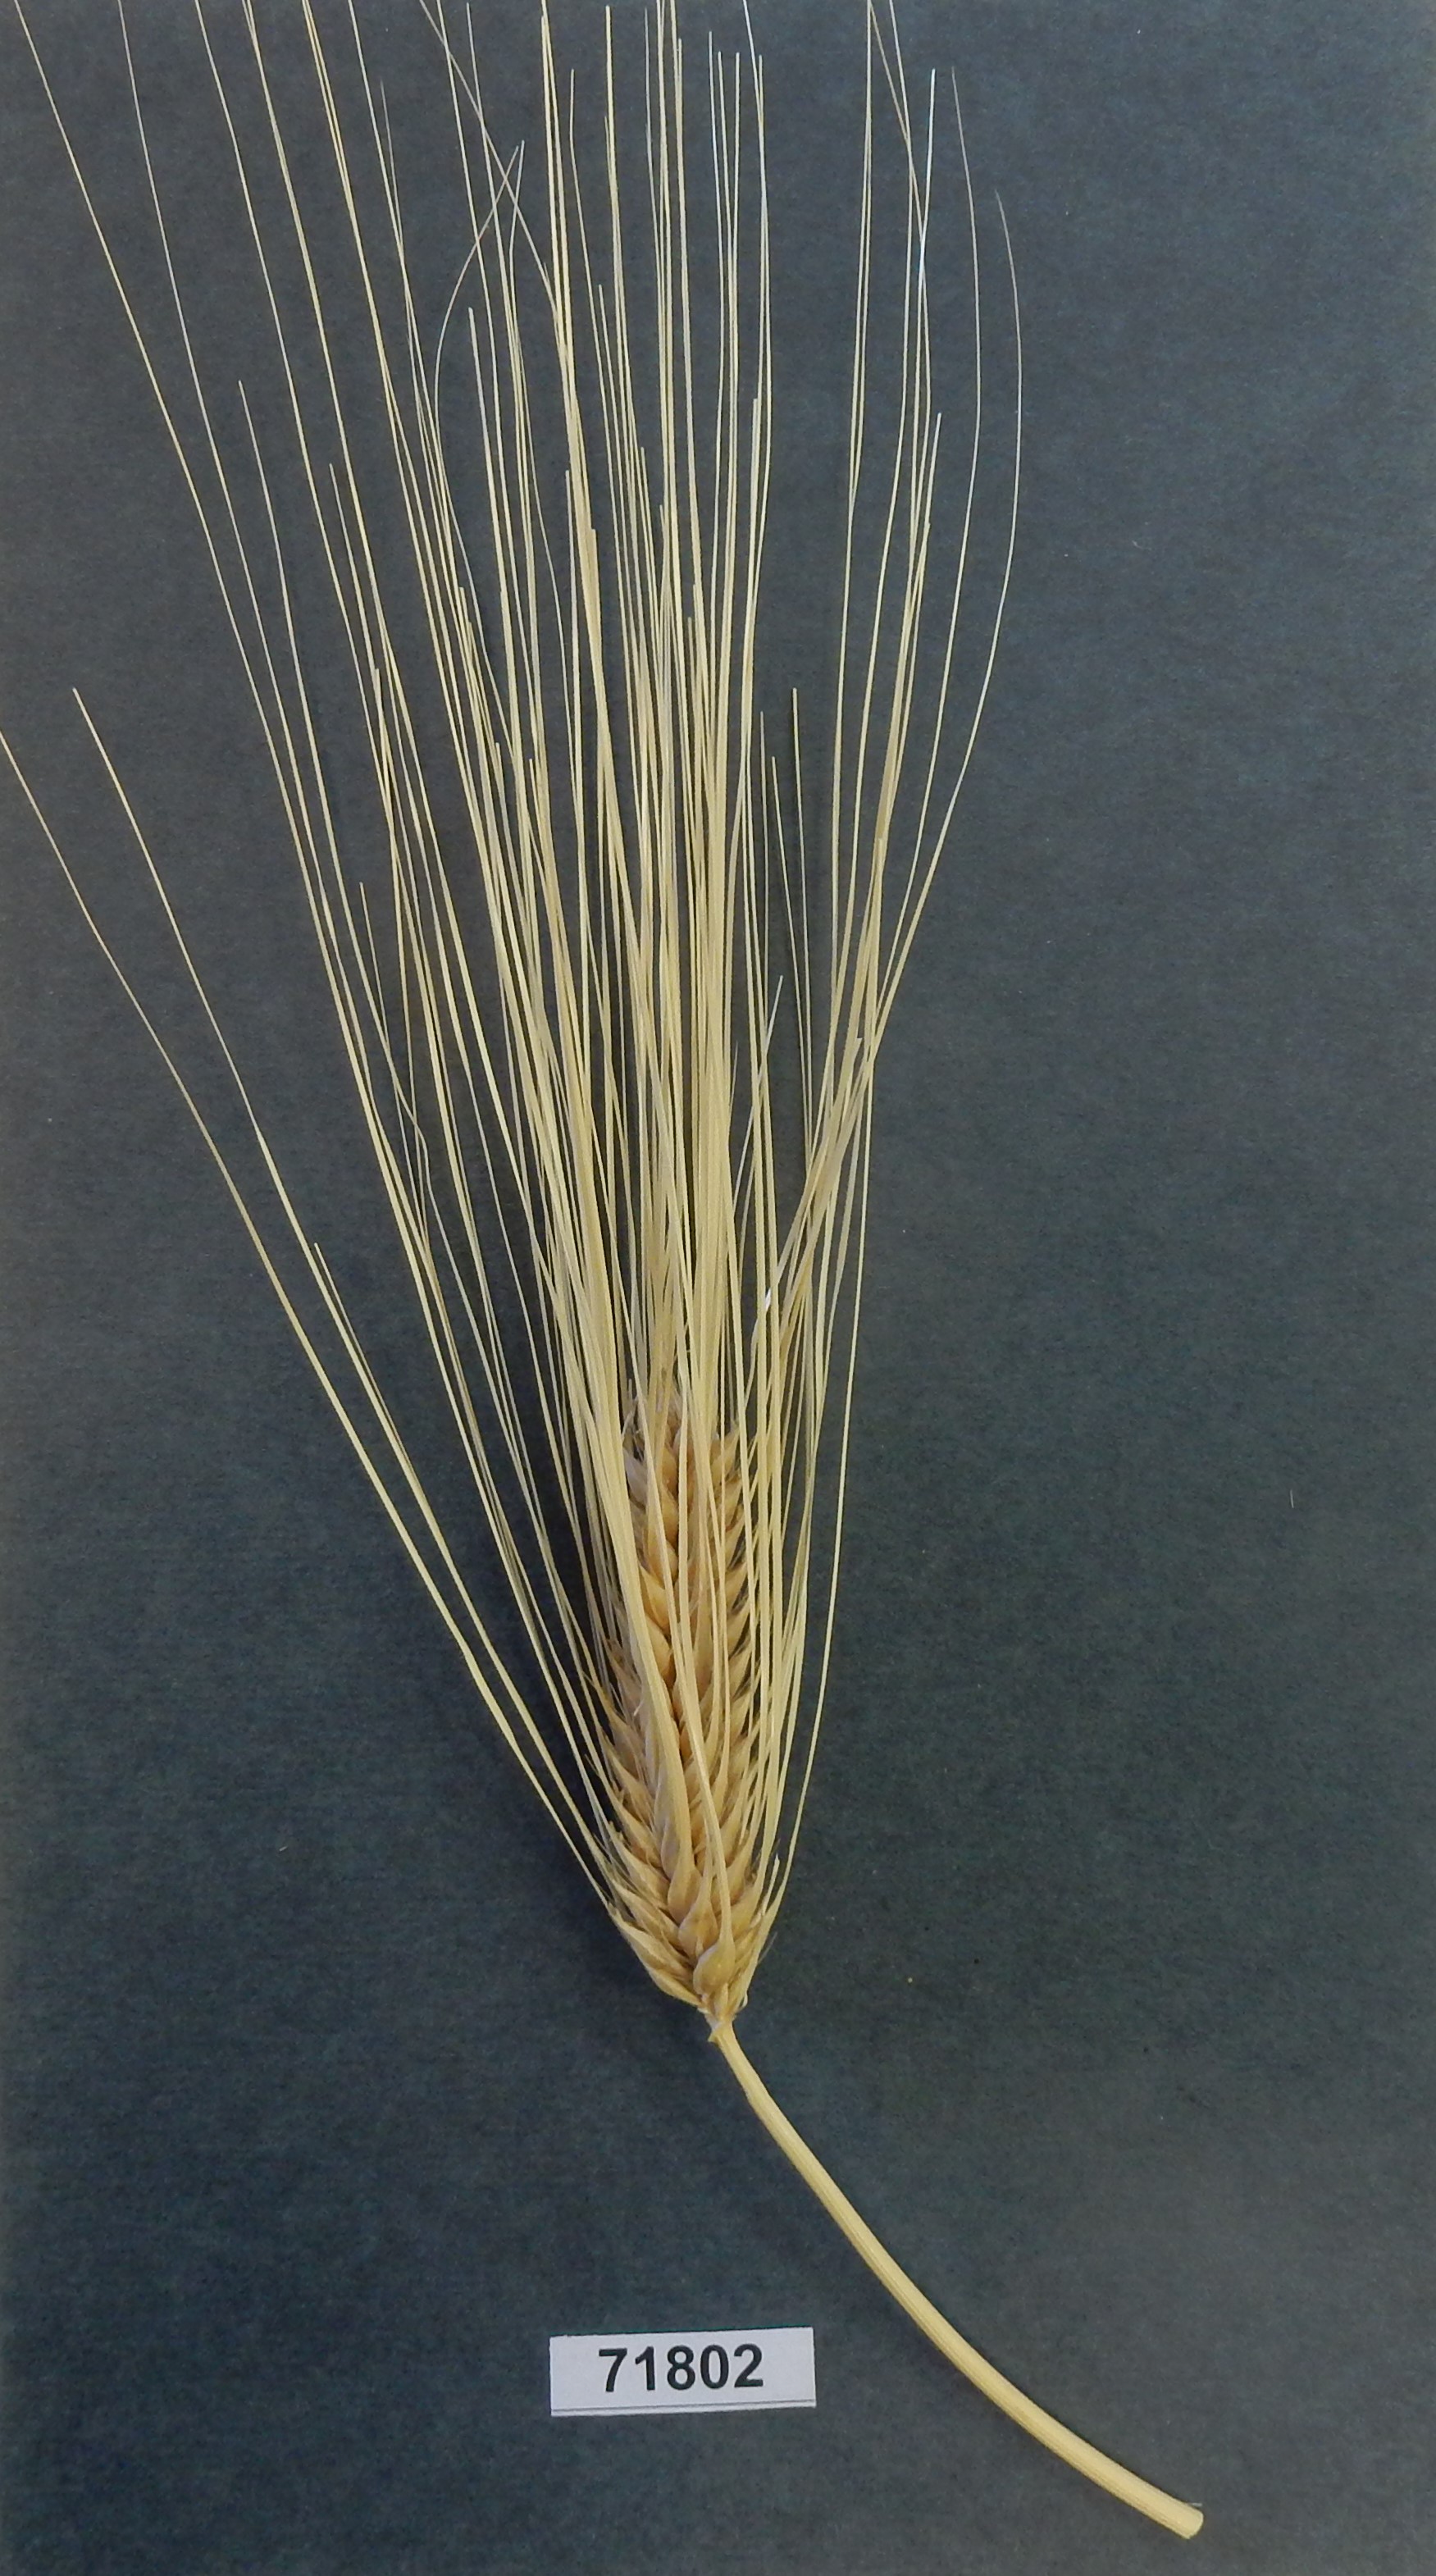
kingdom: Plantae
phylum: Tracheophyta
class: Liliopsida
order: Poales
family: Poaceae
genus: Hordeum
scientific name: Hordeum vulgare
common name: Barley
